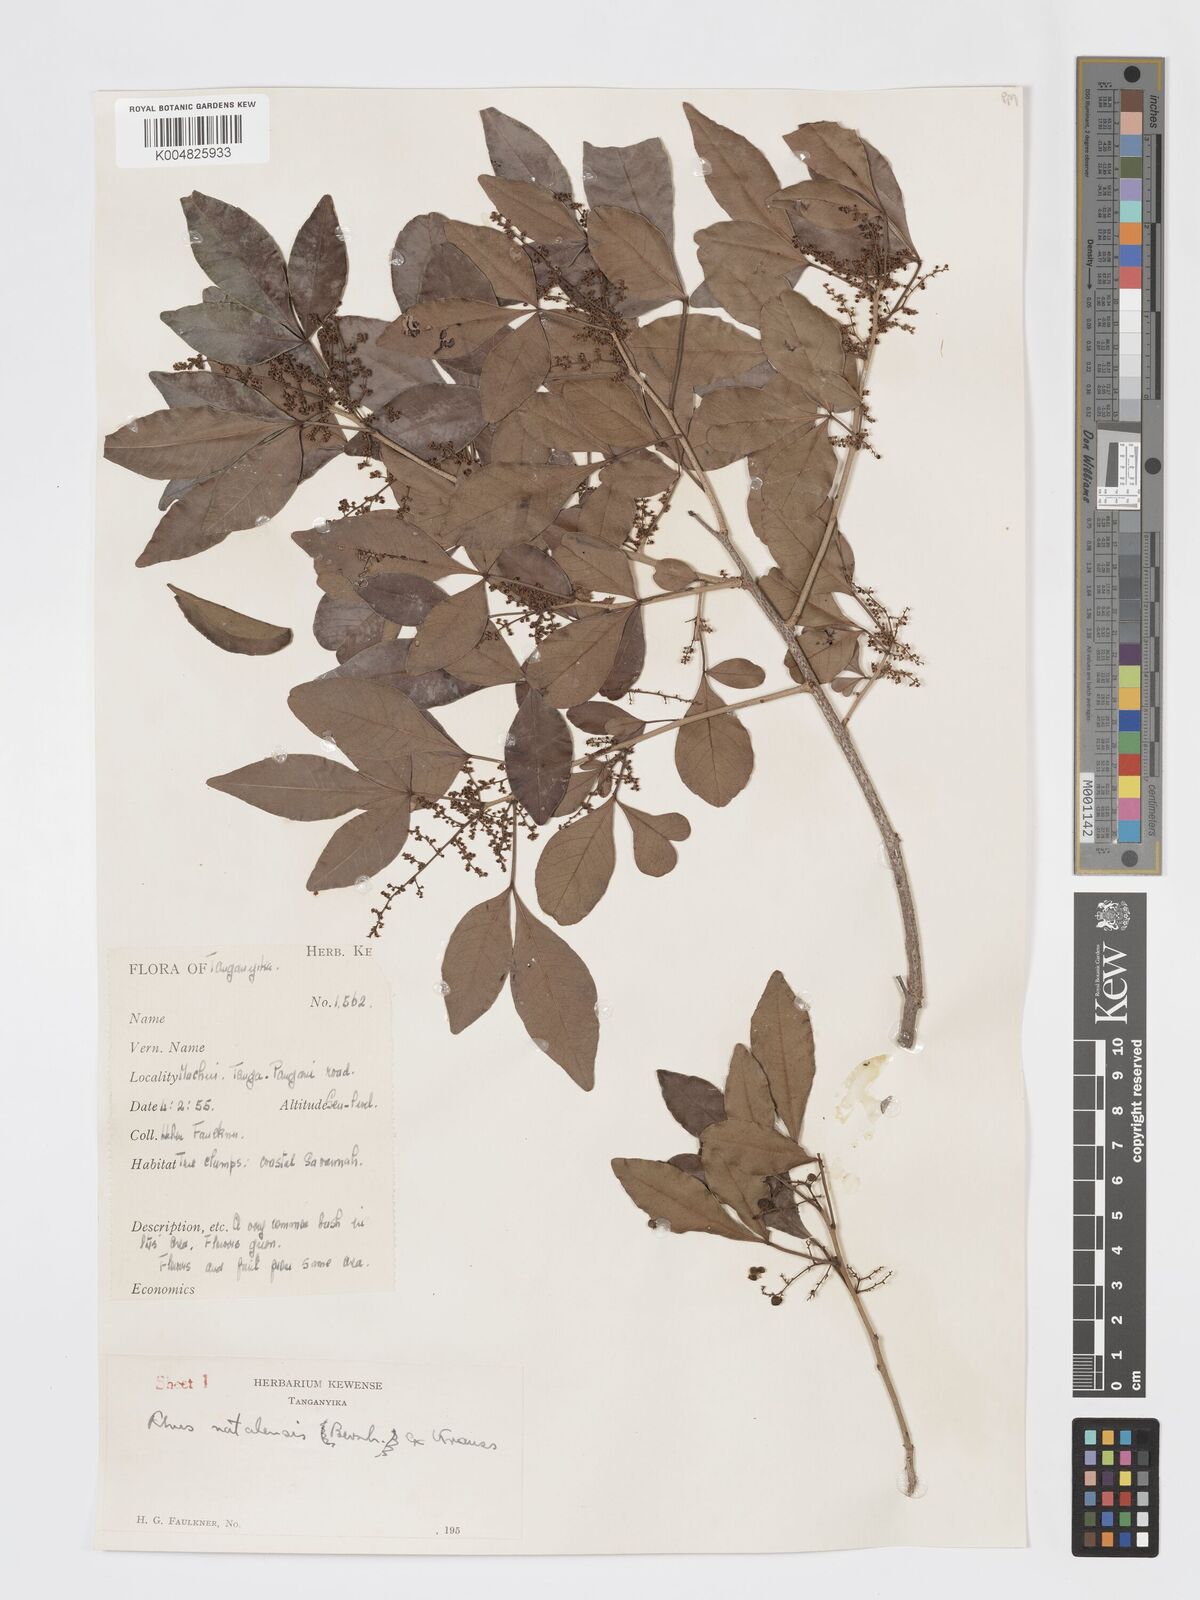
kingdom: Plantae
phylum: Tracheophyta
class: Magnoliopsida
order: Sapindales
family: Anacardiaceae
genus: Searsia
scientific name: Searsia natalensis
